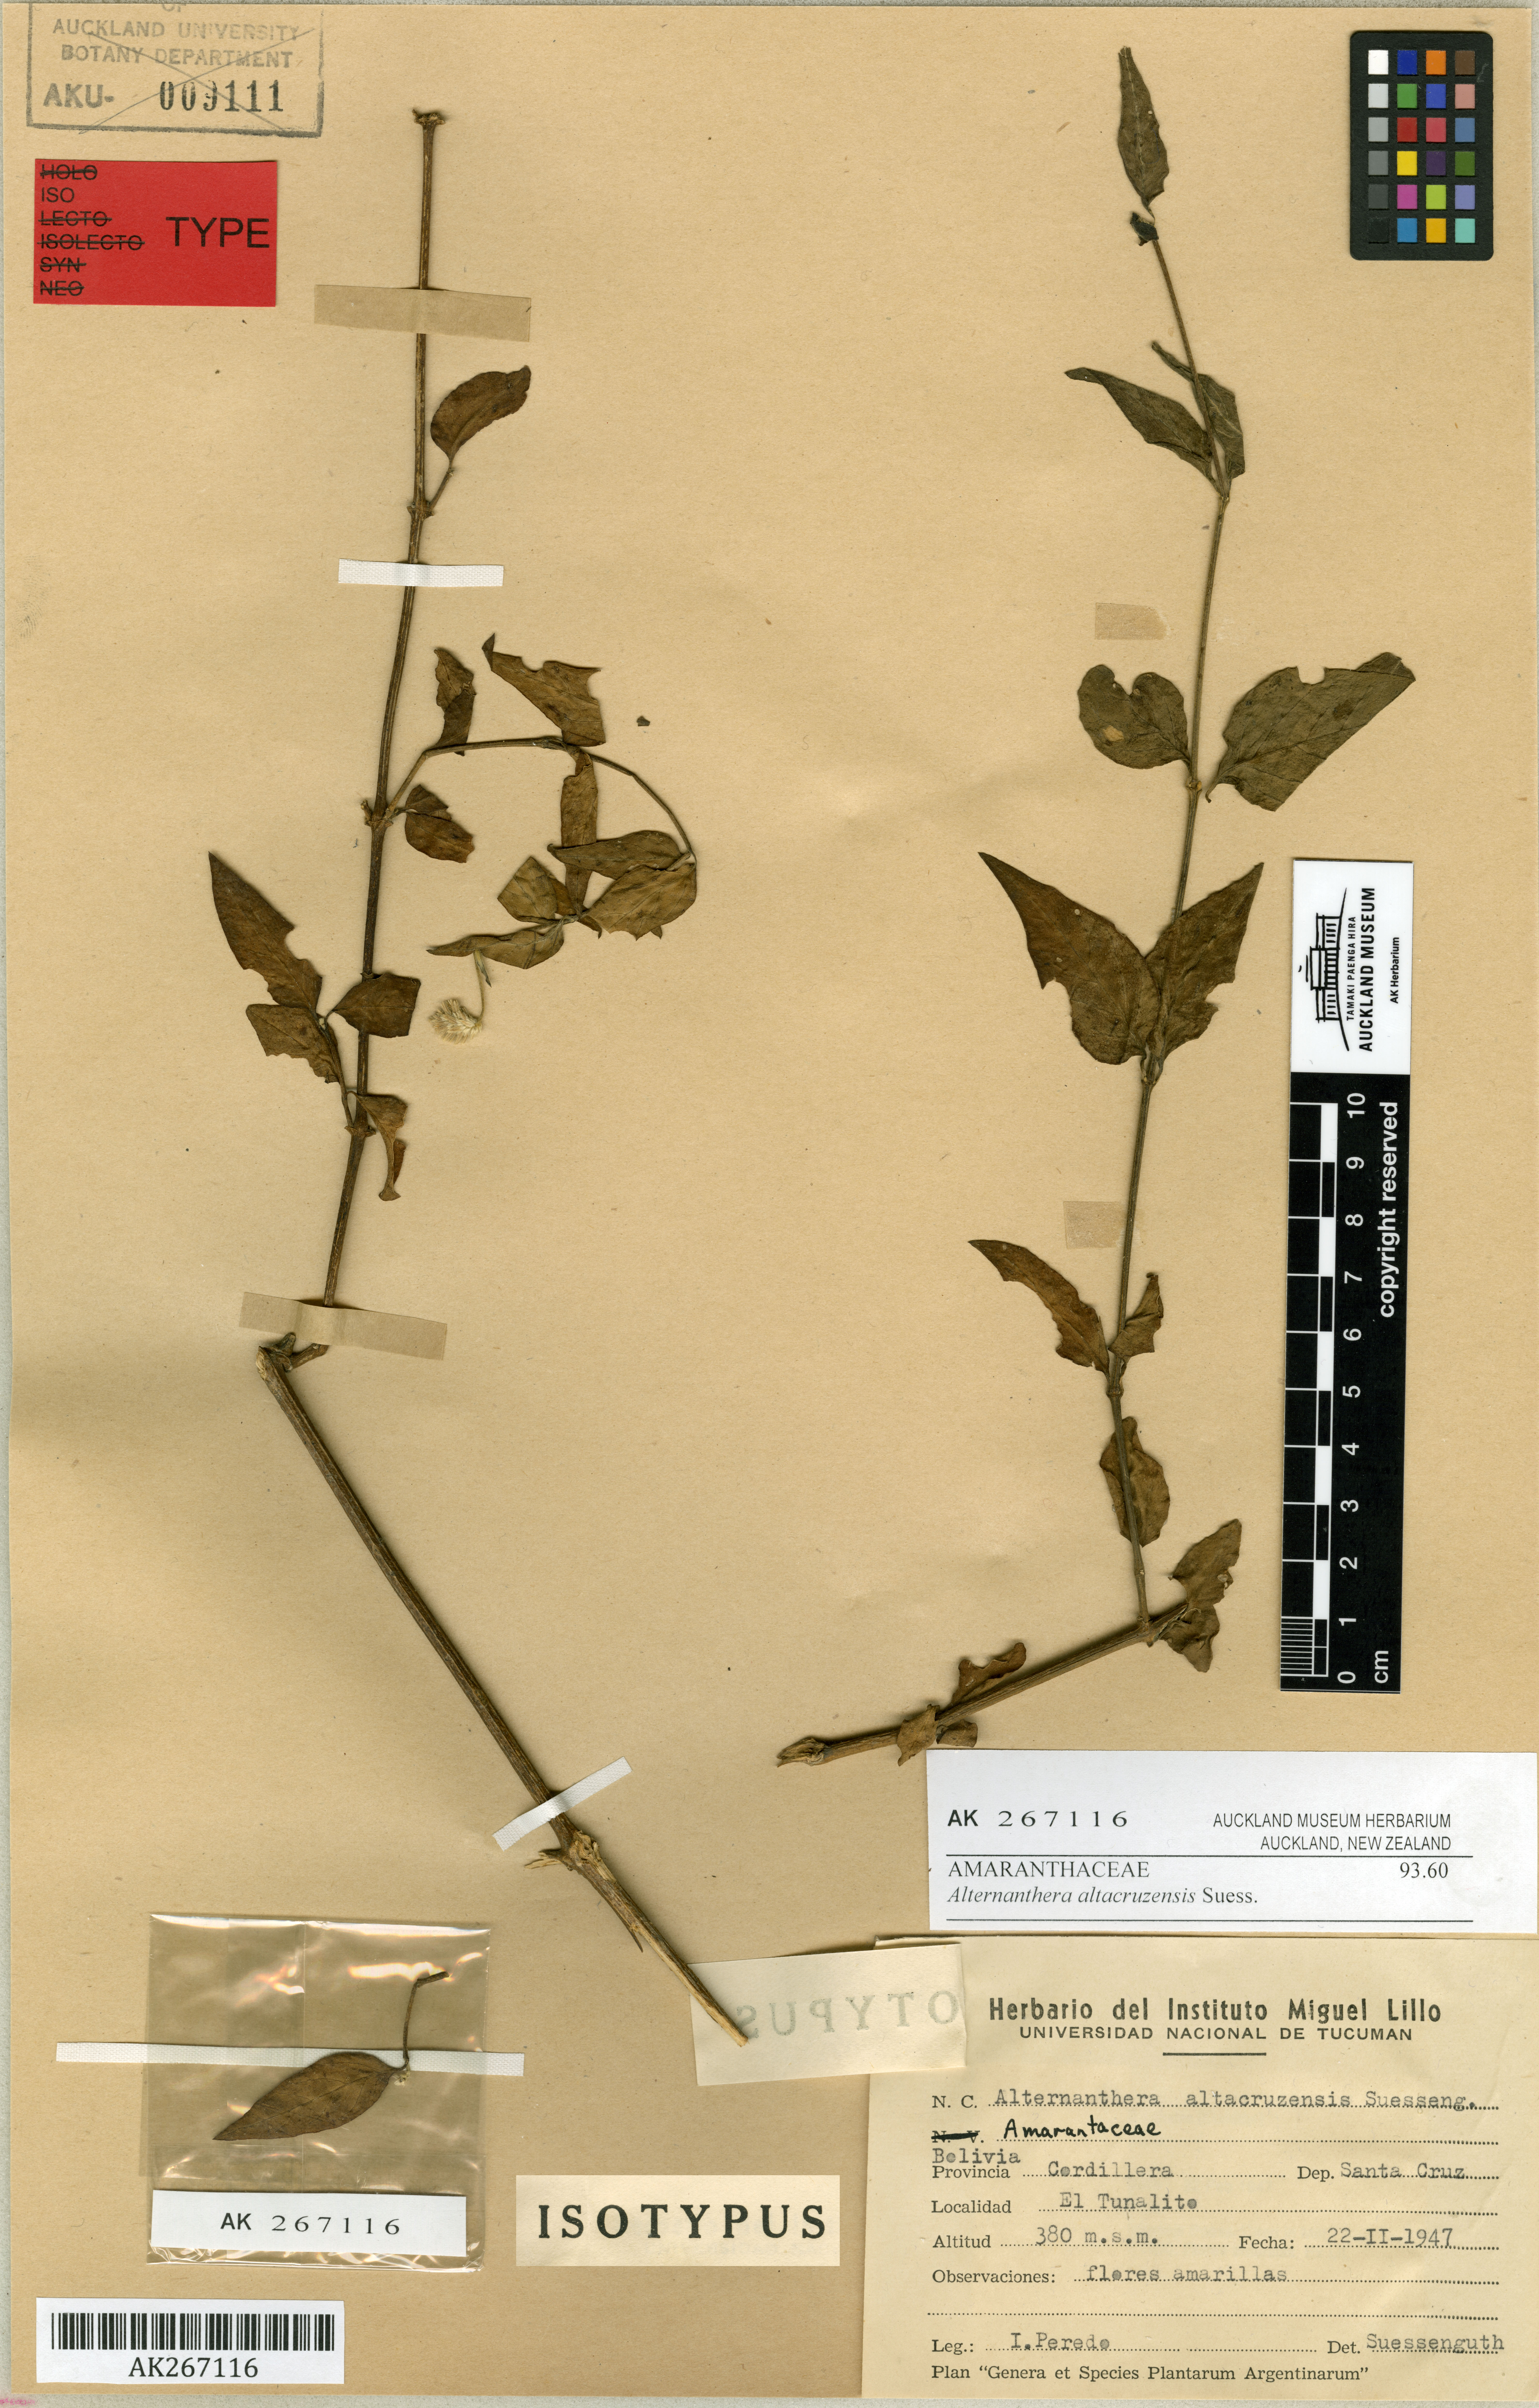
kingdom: Plantae
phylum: Tracheophyta
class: Magnoliopsida
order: Caryophyllales
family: Amaranthaceae
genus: Alternanthera
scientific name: Alternanthera altacruzensis
